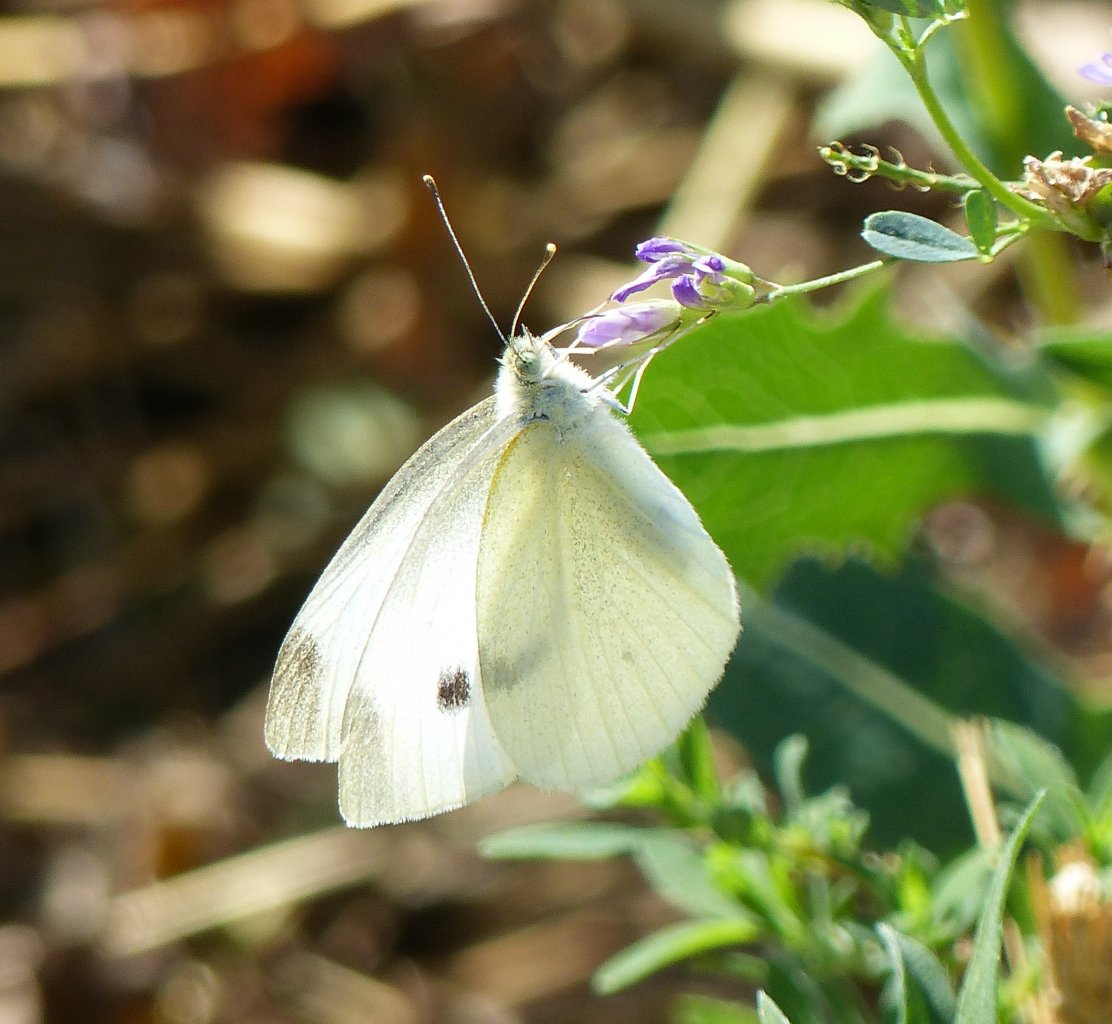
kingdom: Animalia
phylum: Arthropoda
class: Insecta
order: Lepidoptera
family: Pieridae
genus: Pieris
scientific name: Pieris rapae
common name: Cabbage White
